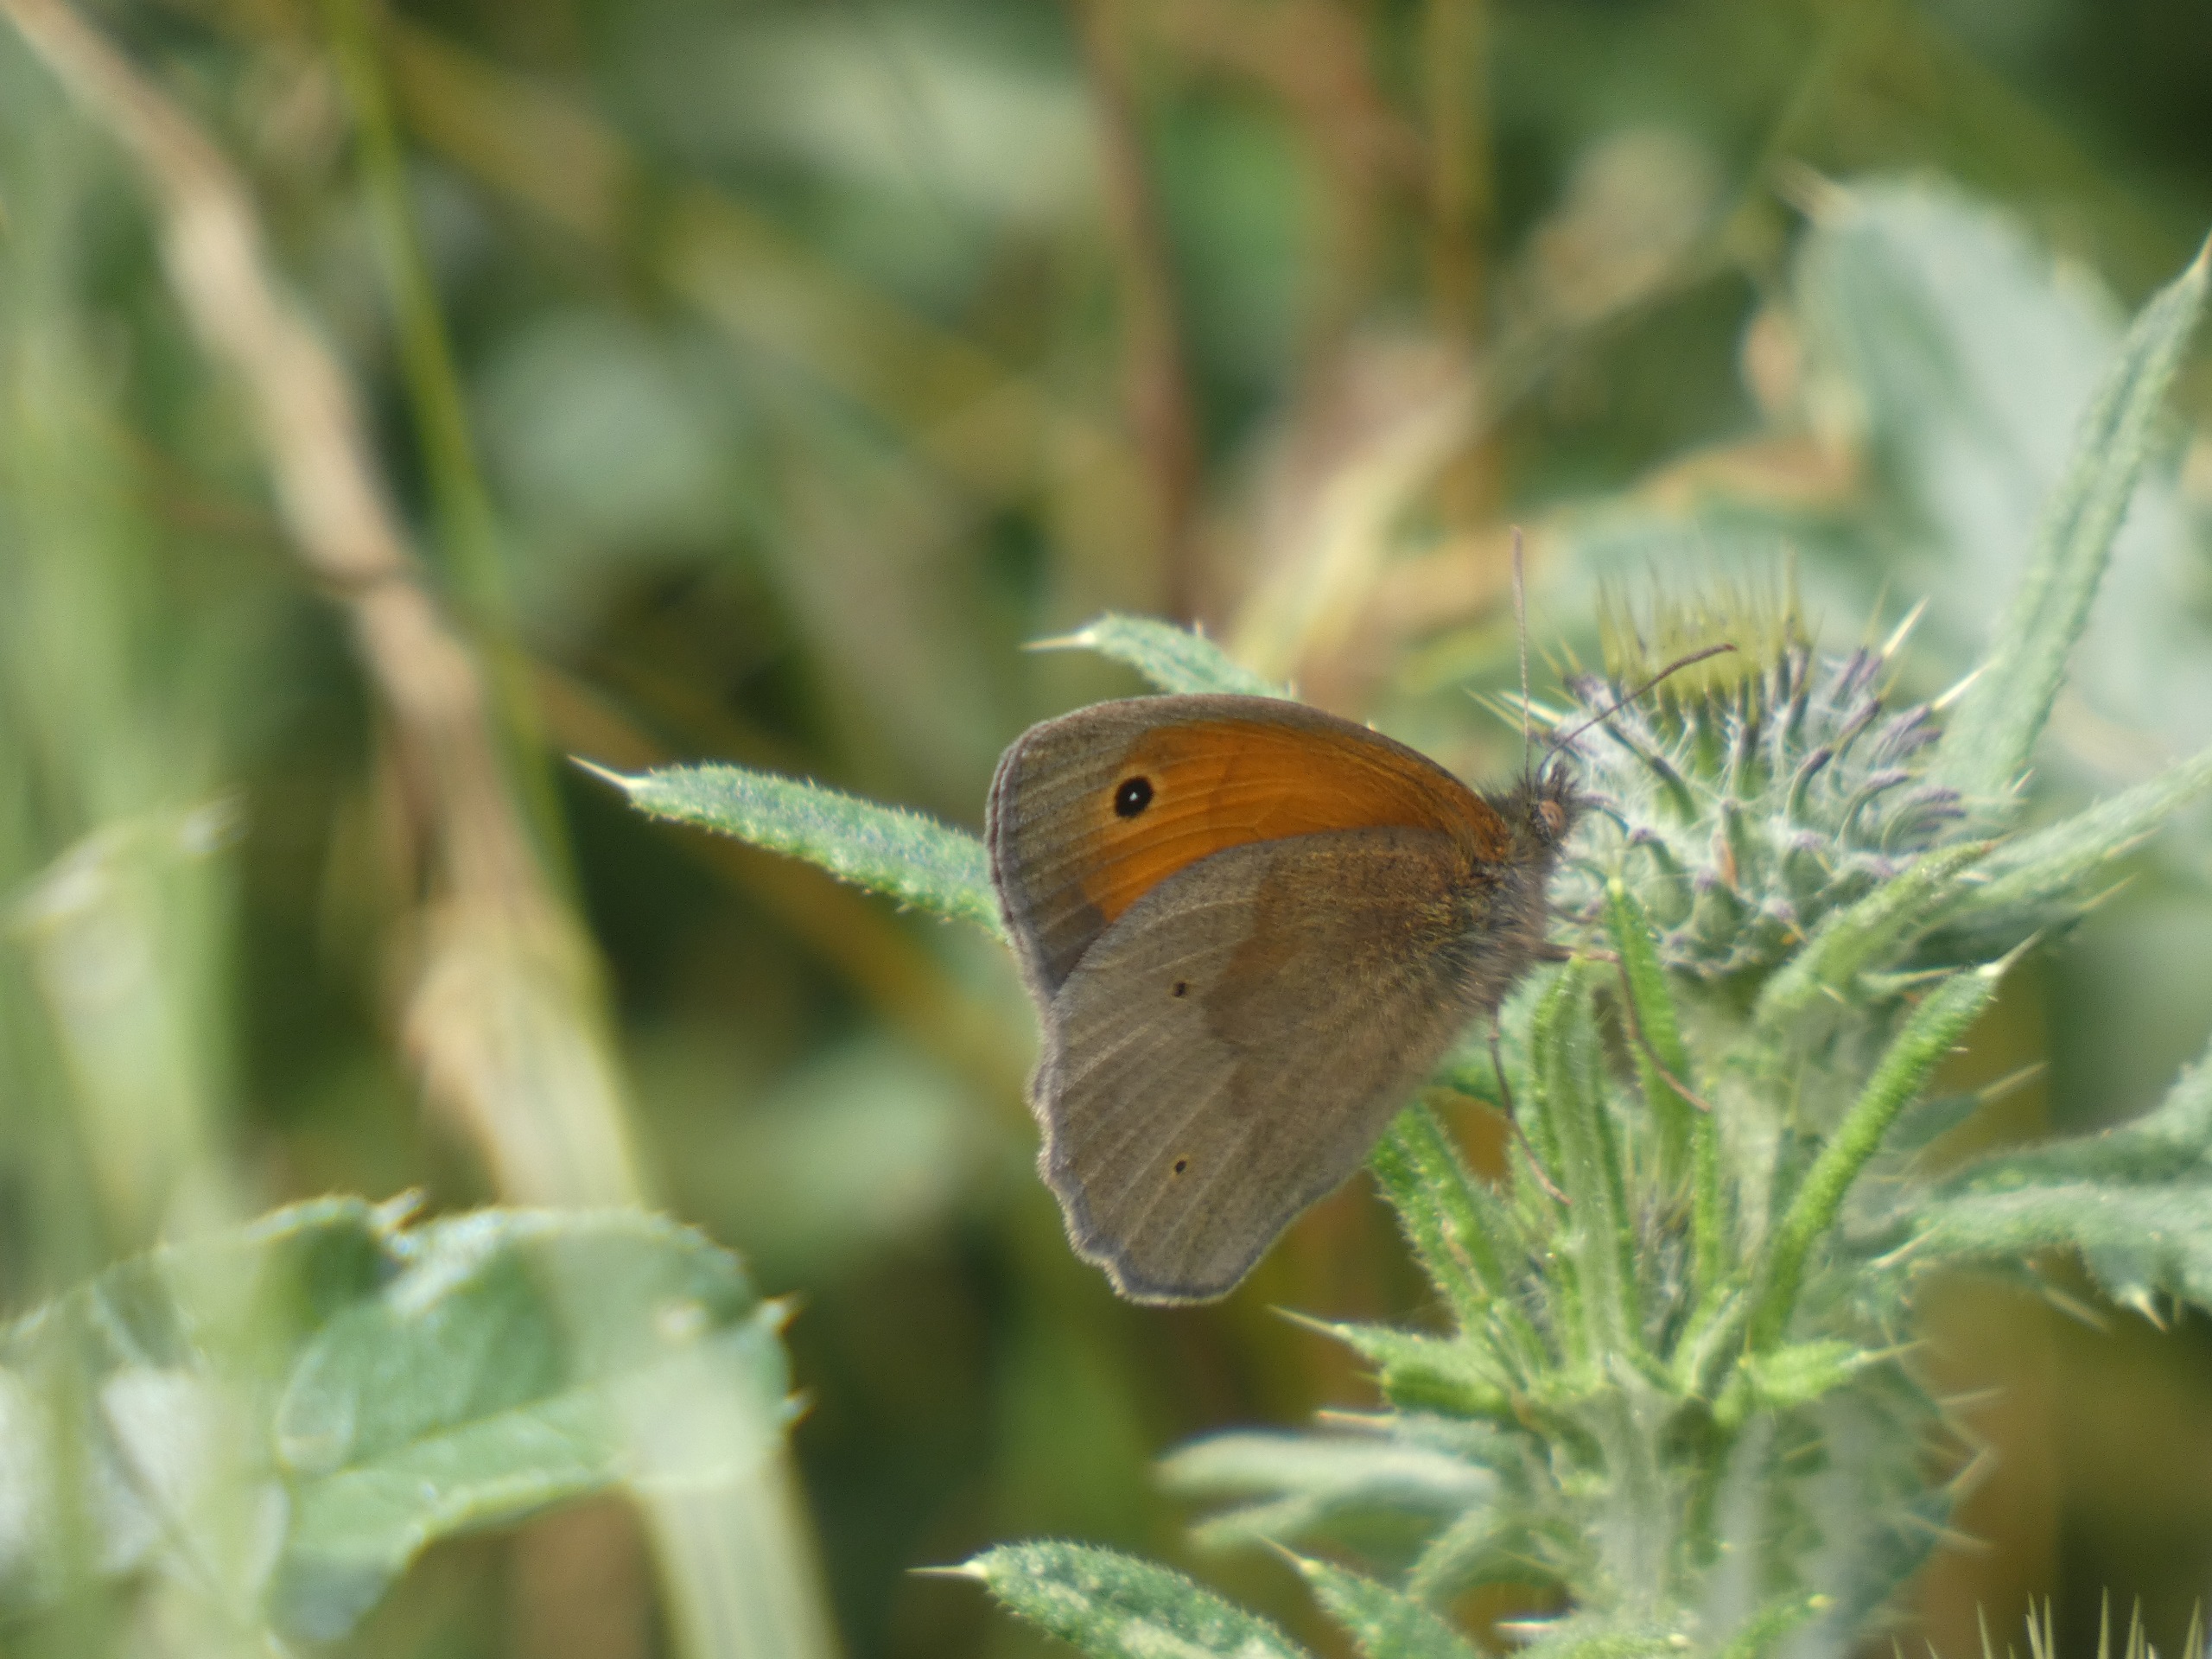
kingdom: Animalia
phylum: Arthropoda
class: Insecta
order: Lepidoptera
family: Nymphalidae
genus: Maniola
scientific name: Maniola jurtina
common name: Græsrandøje
